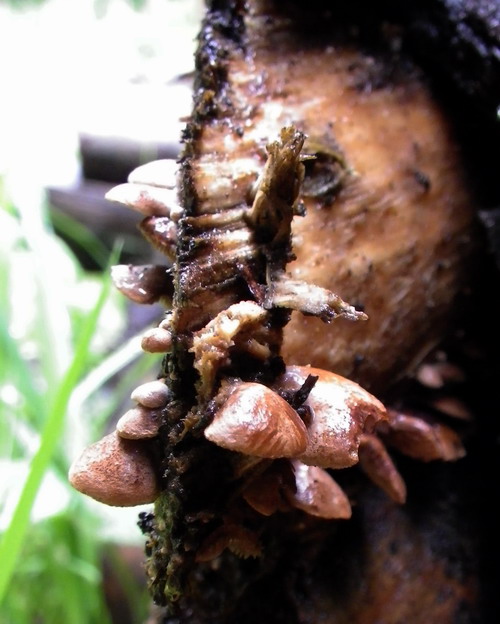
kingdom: Fungi
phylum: Basidiomycota
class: Agaricomycetes
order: Agaricales
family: Strophariaceae
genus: Deconica
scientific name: Deconica horizontalis
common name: ved-stråhat
